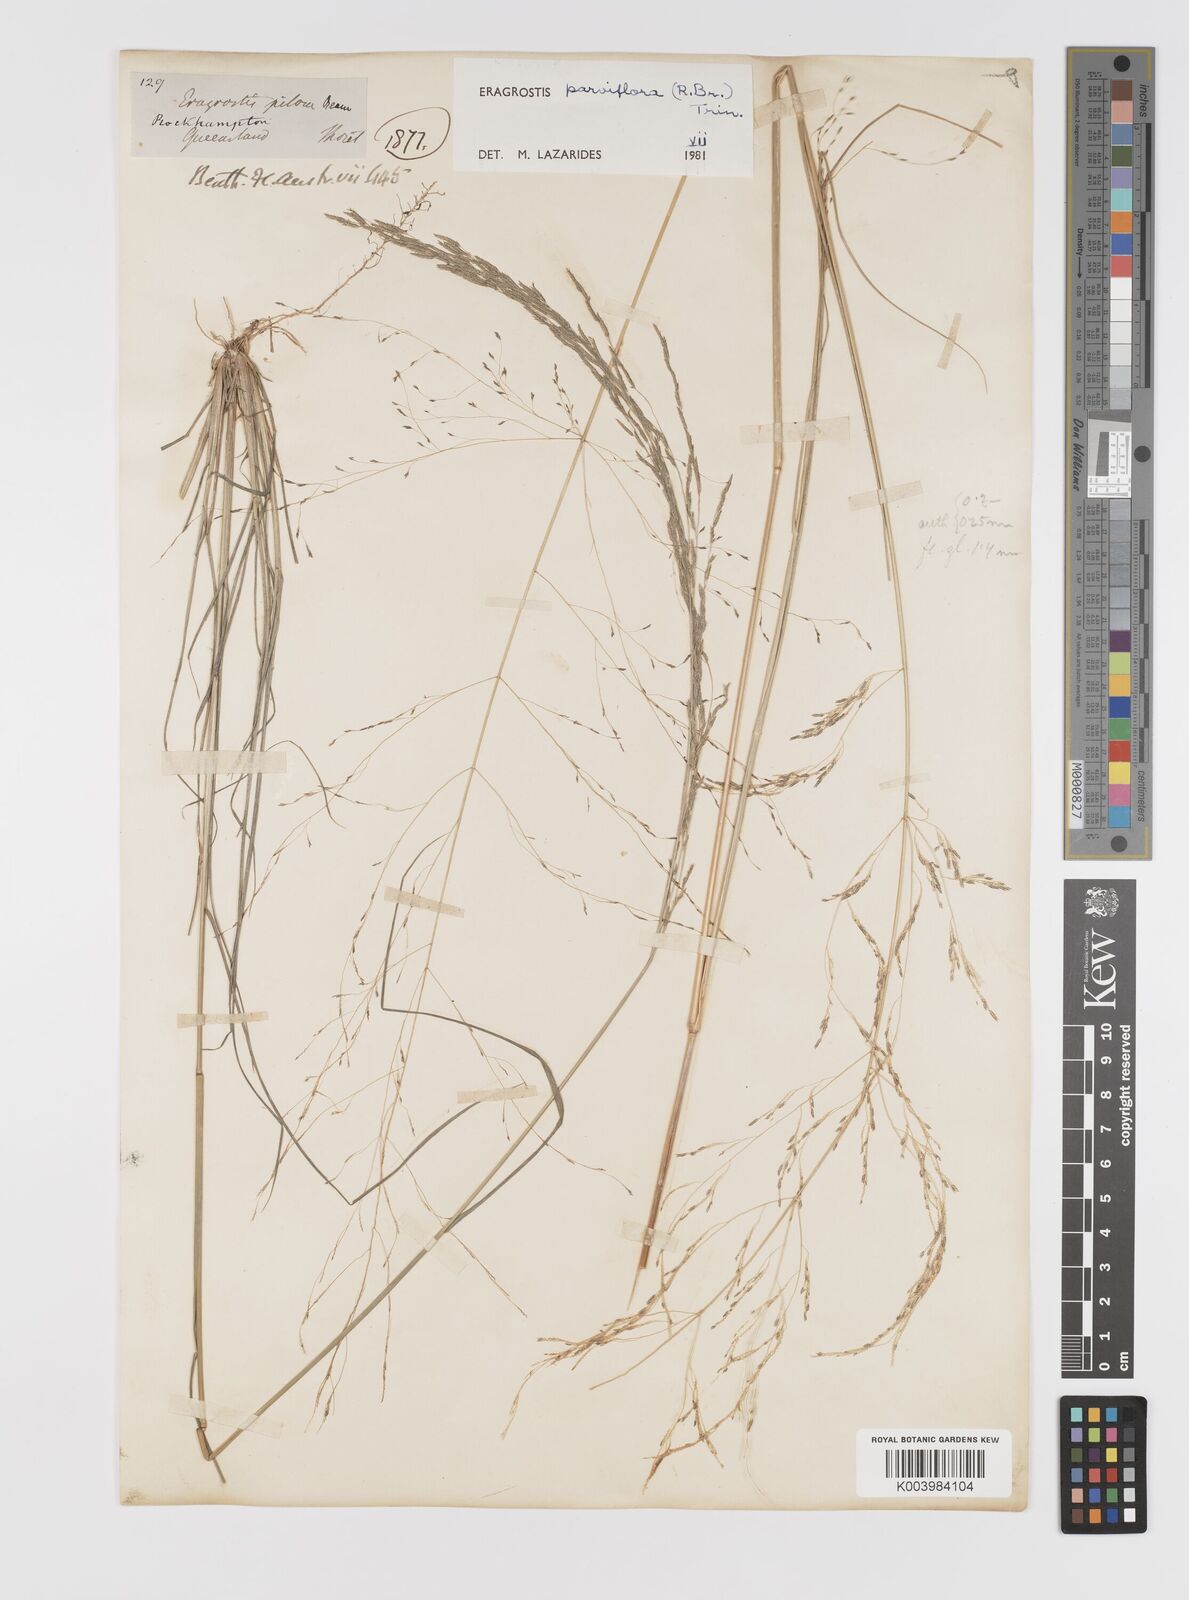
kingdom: Plantae
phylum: Tracheophyta
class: Liliopsida
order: Poales
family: Poaceae
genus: Eragrostis
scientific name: Eragrostis parviflora
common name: Weeping love-grass
